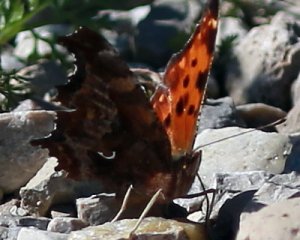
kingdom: Animalia
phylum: Arthropoda
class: Insecta
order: Lepidoptera
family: Nymphalidae
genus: Polygonia
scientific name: Polygonia comma
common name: Eastern Comma
